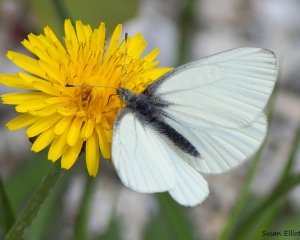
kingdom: Animalia
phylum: Arthropoda
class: Insecta
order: Lepidoptera
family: Pieridae
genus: Pieris
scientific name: Pieris oleracea
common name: Mustard White
